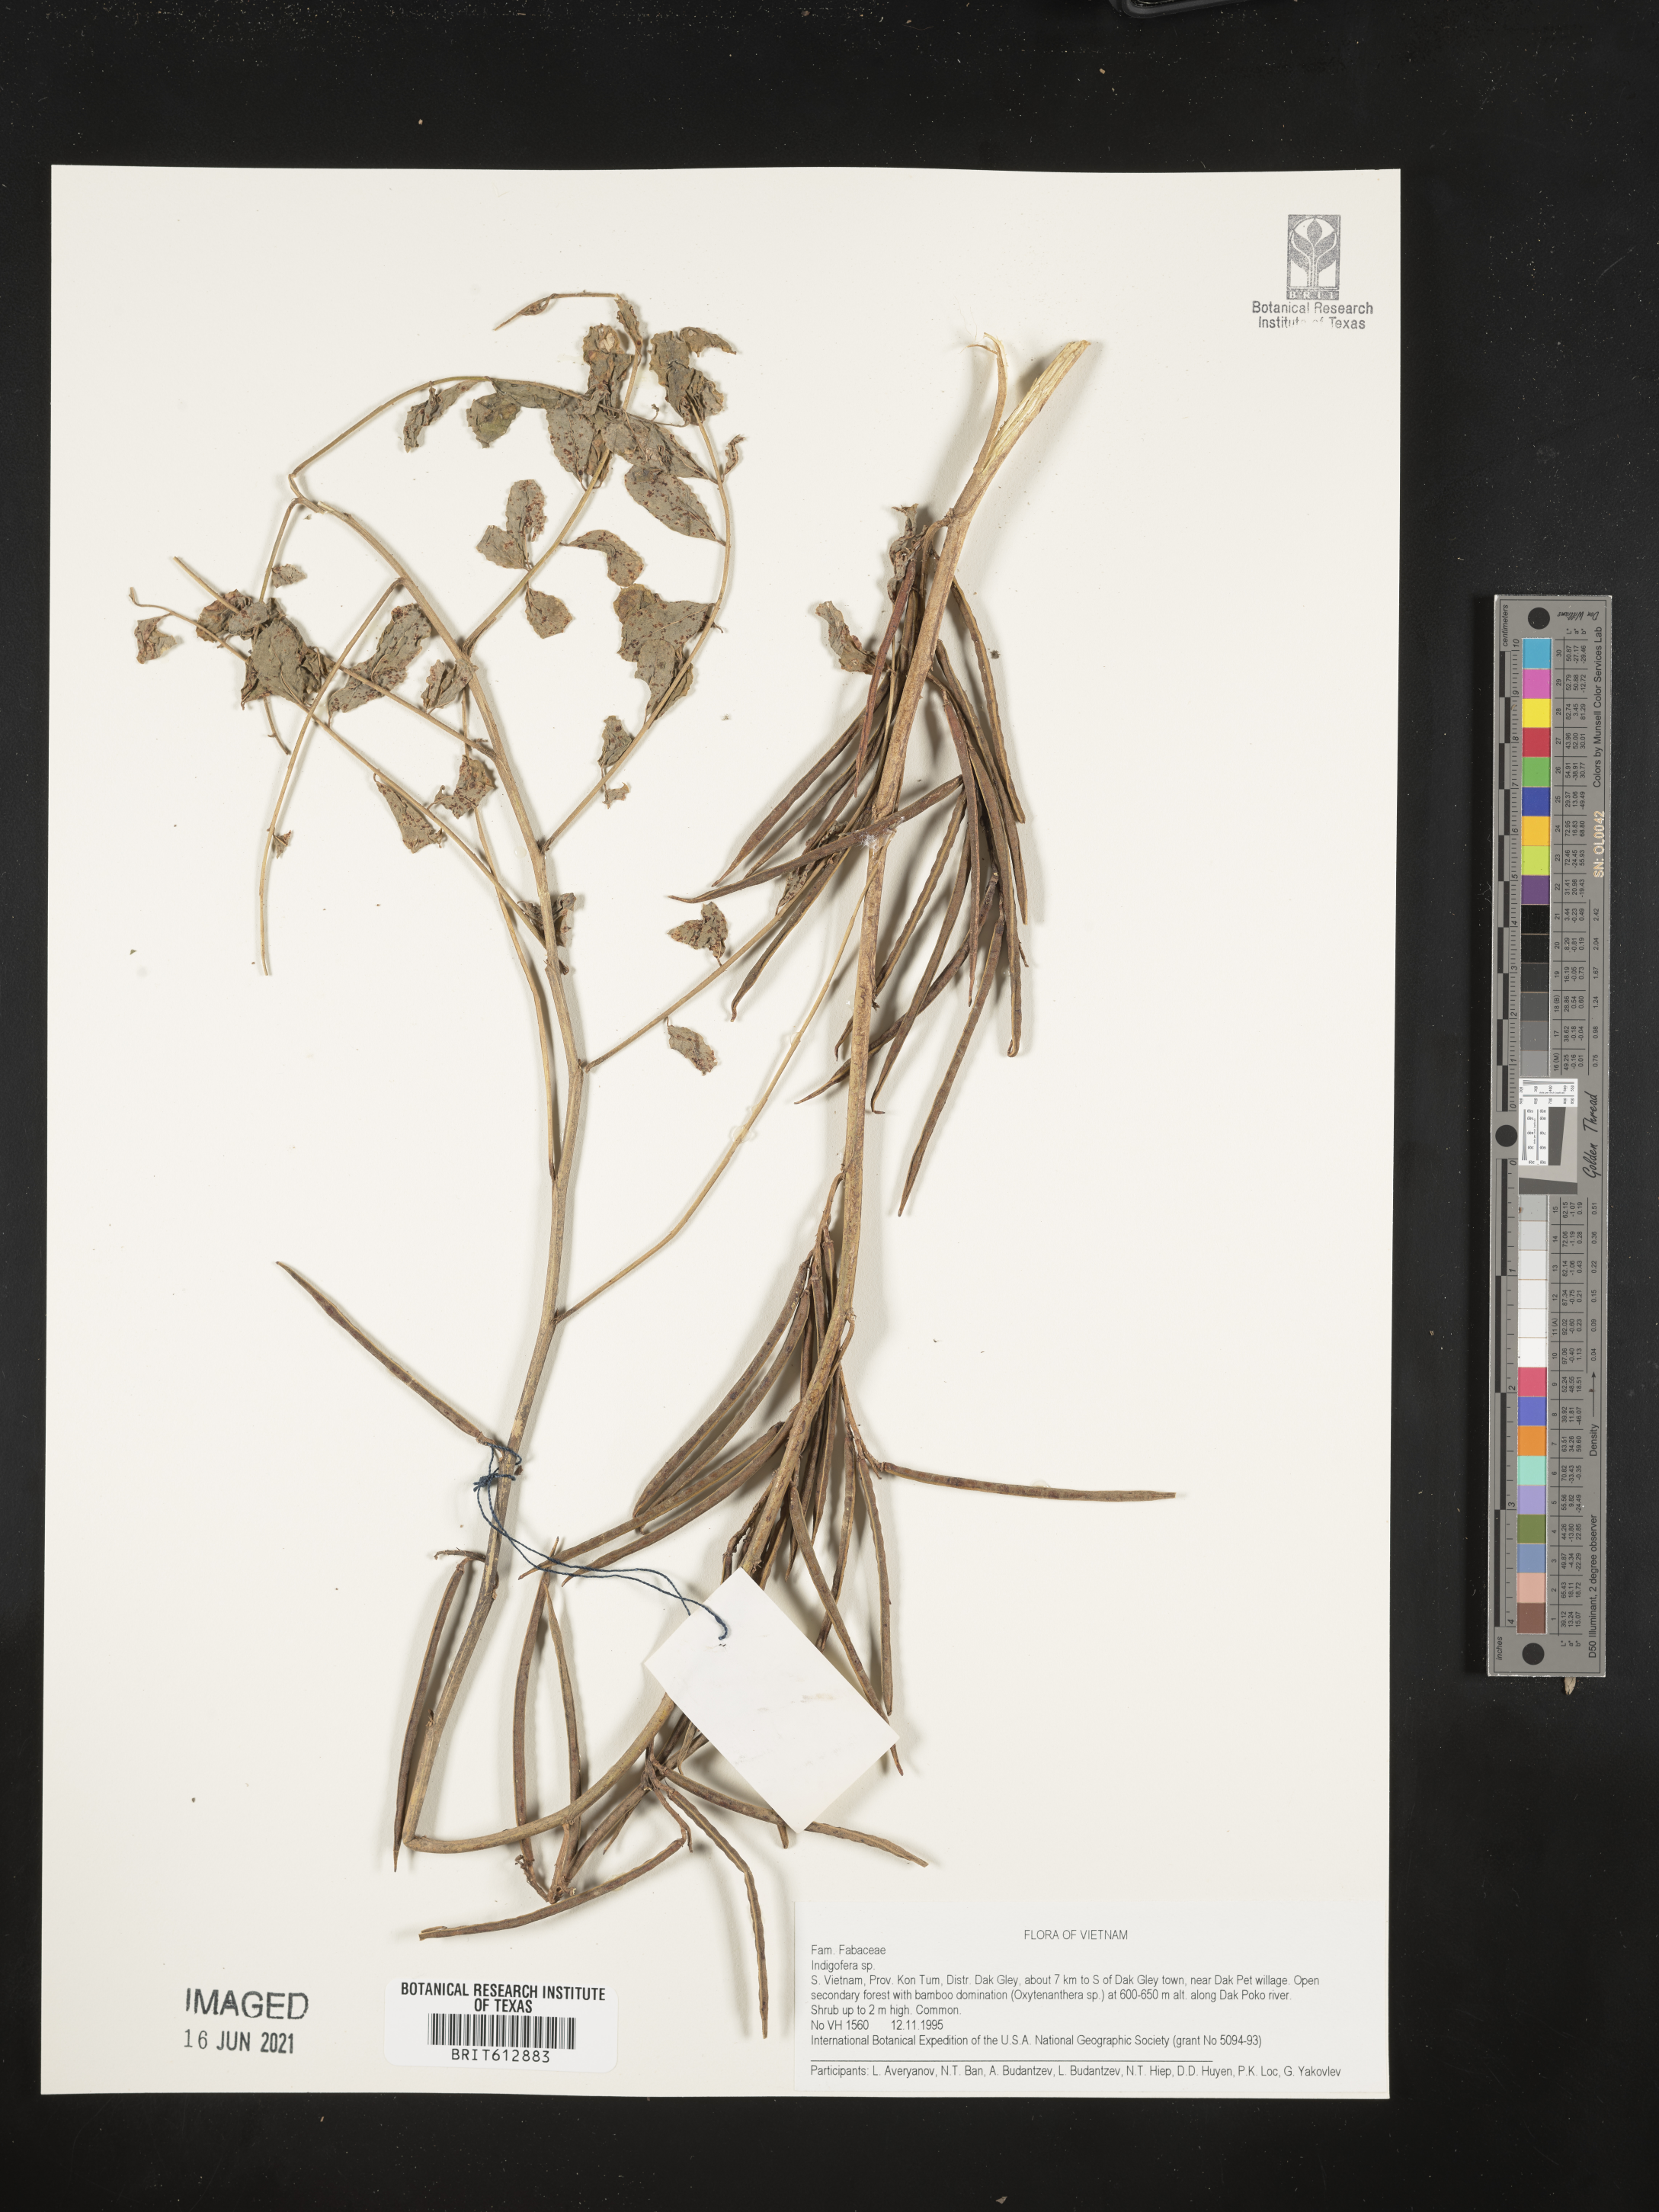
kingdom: Plantae
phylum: Tracheophyta
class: Magnoliopsida
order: Fabales
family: Fabaceae
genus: Indigofera
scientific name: Indigofera
